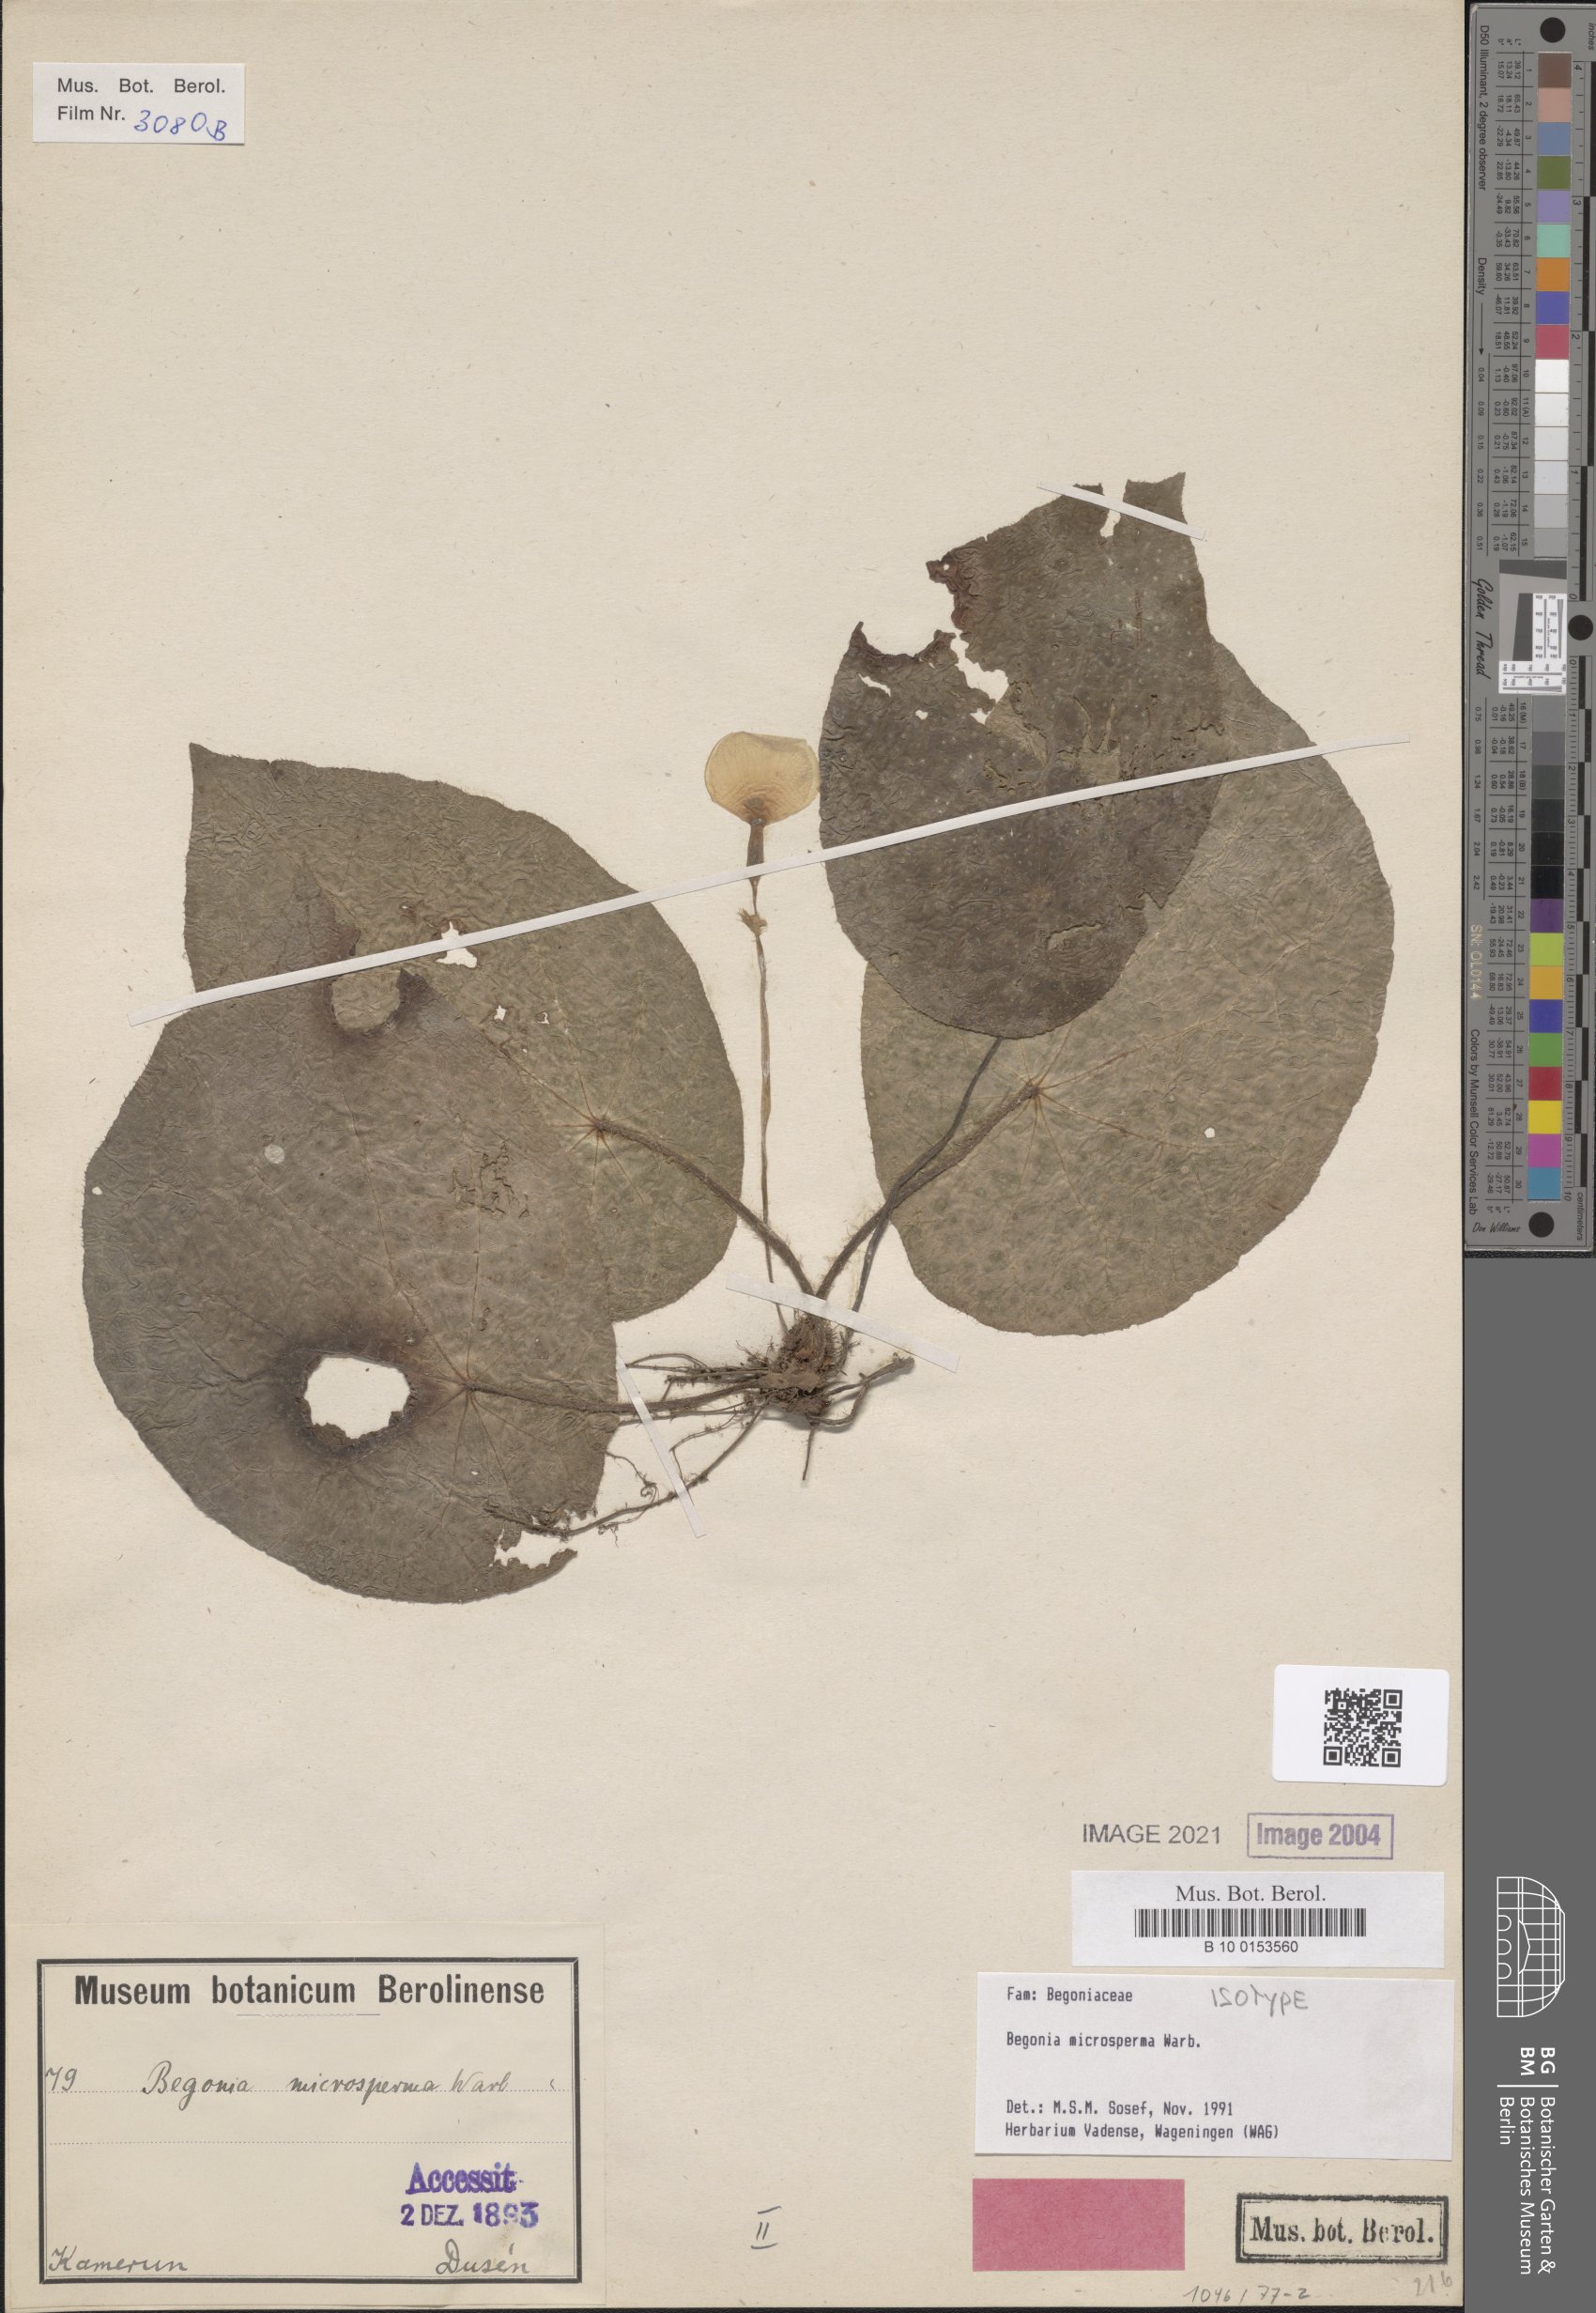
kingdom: Plantae
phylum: Tracheophyta
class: Magnoliopsida
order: Cucurbitales
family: Begoniaceae
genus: Begonia
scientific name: Begonia microsperma
